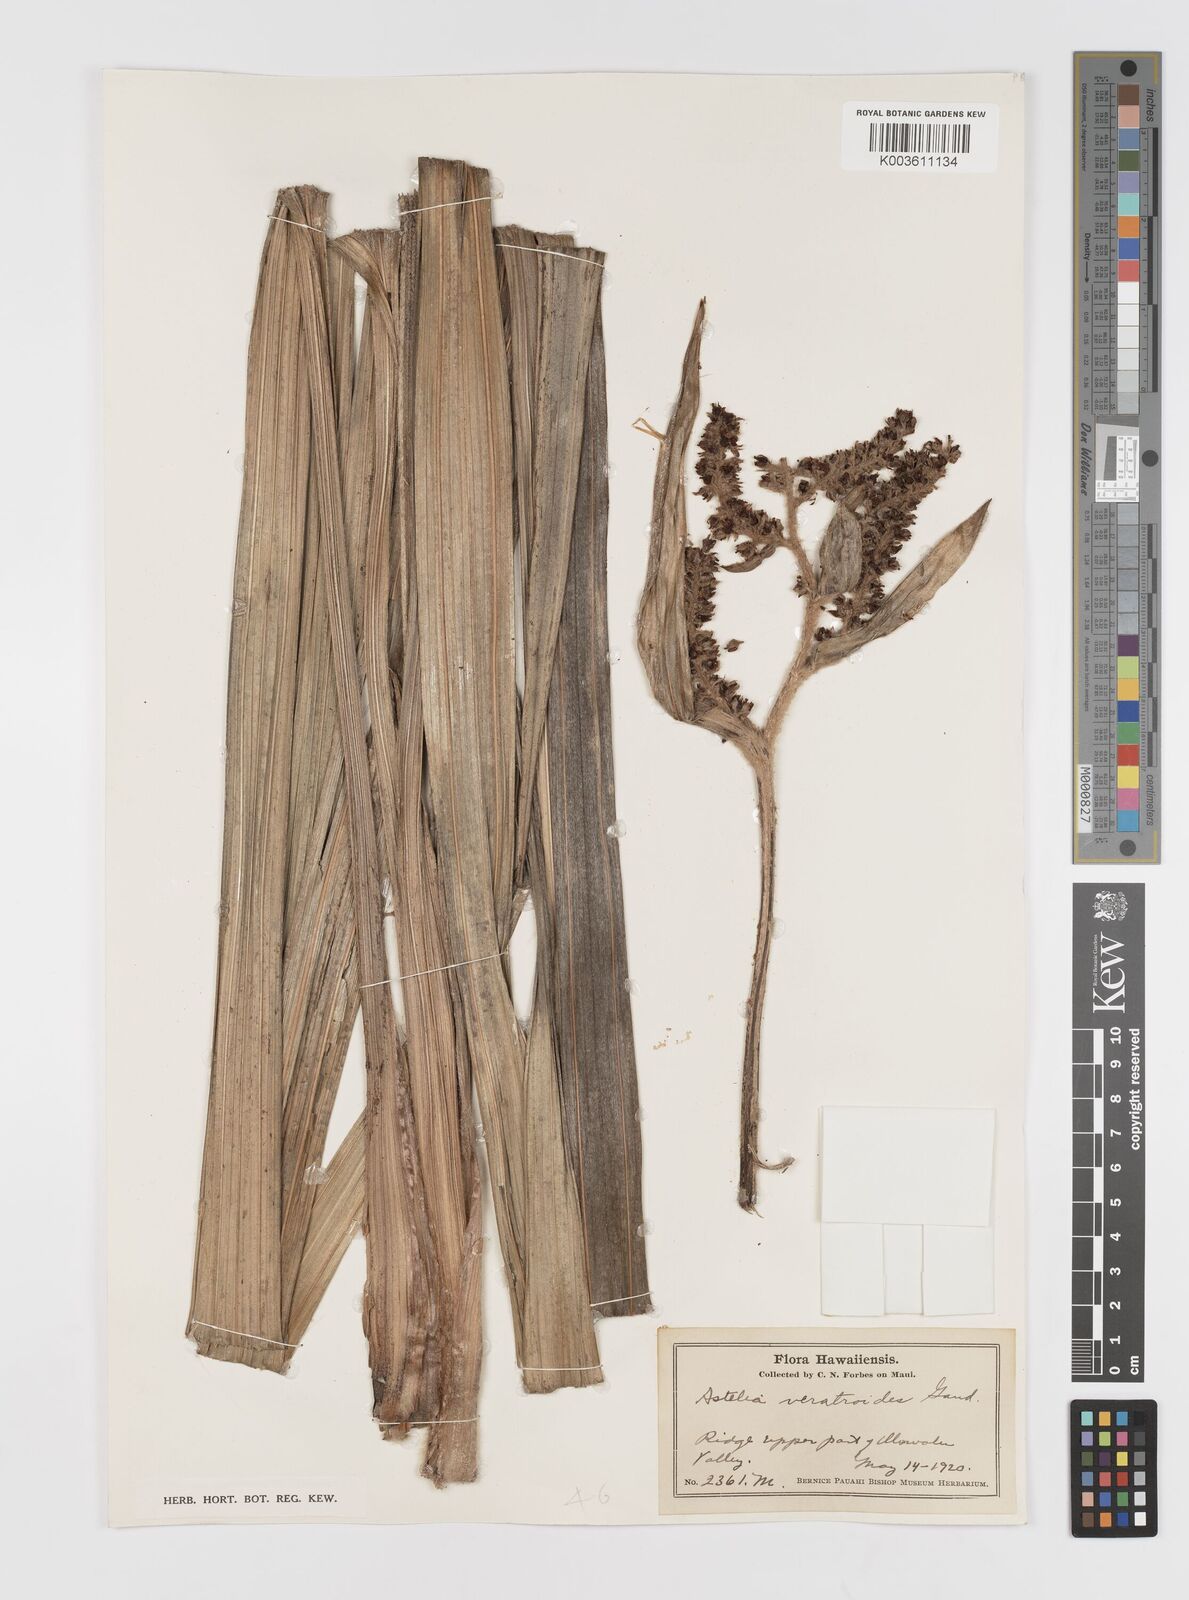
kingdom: Plantae
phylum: Tracheophyta
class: Liliopsida
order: Asparagales
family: Asteliaceae
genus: Astelia
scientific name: Astelia menziesiana
